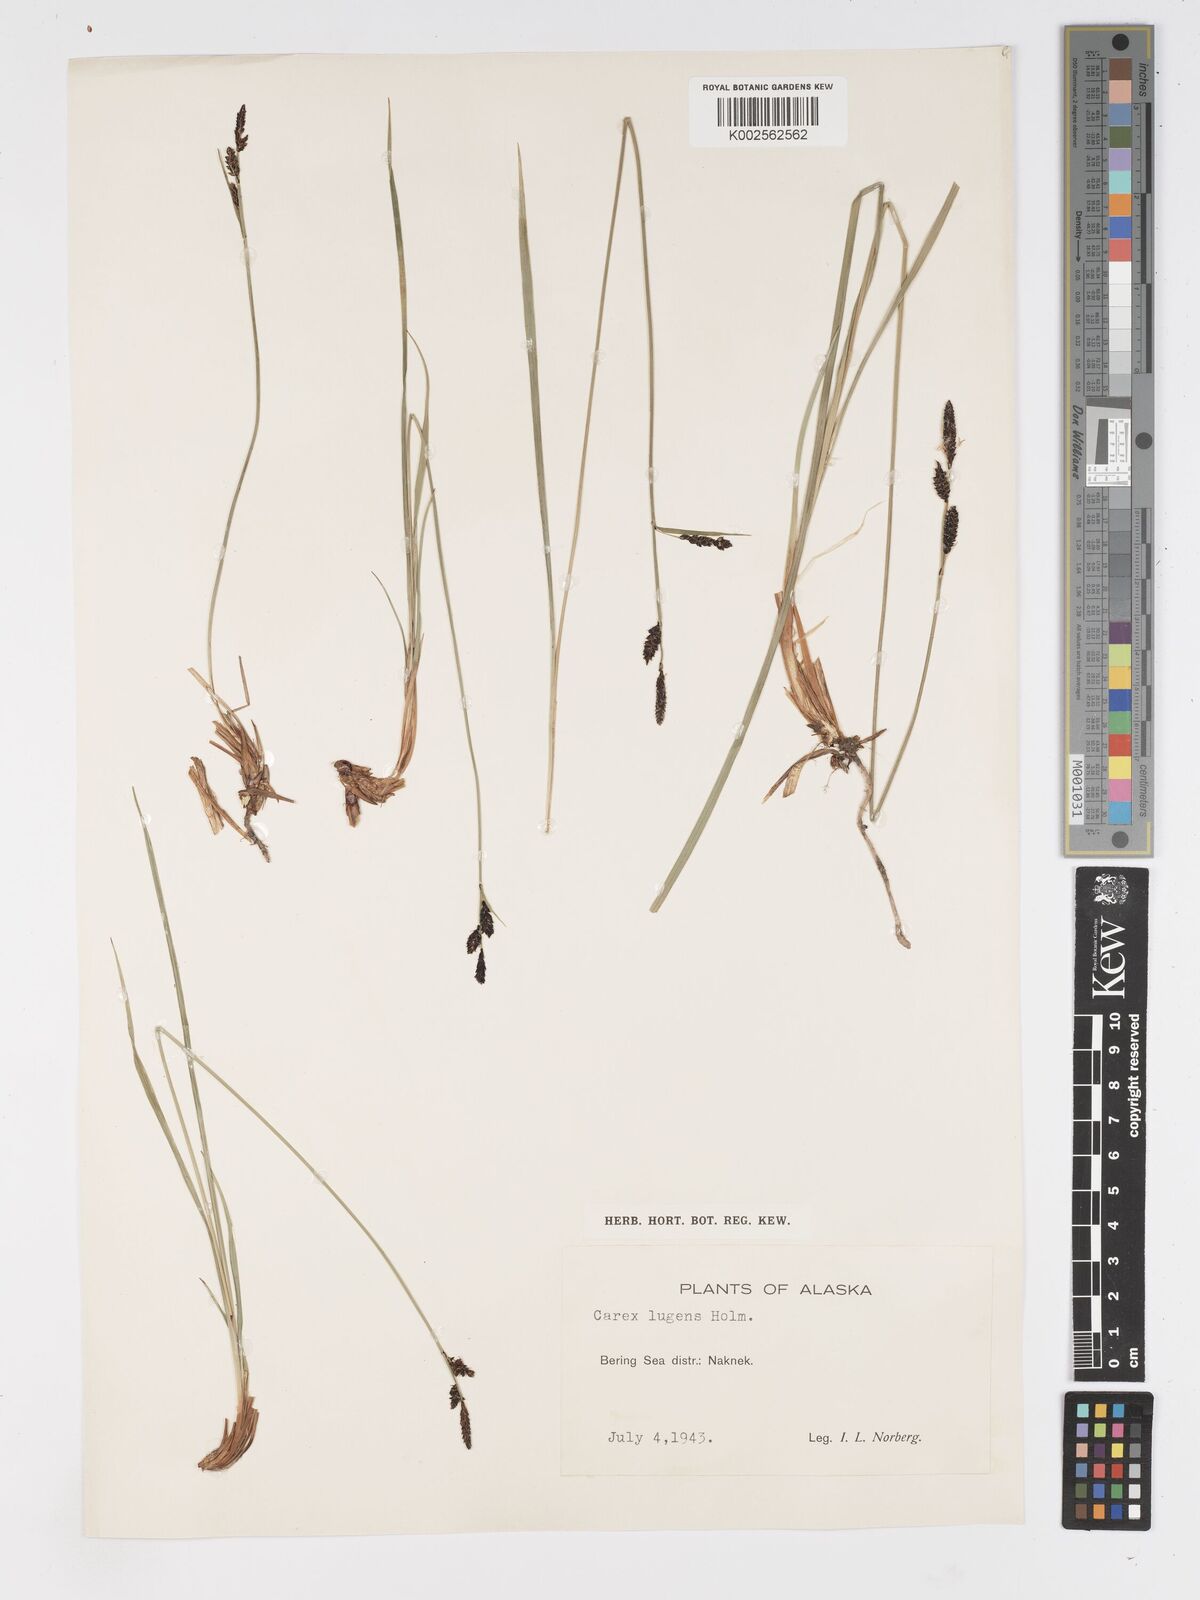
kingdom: Plantae
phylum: Tracheophyta
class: Liliopsida
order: Poales
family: Cyperaceae
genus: Carex
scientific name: Carex bigelowii
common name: Stiff sedge
